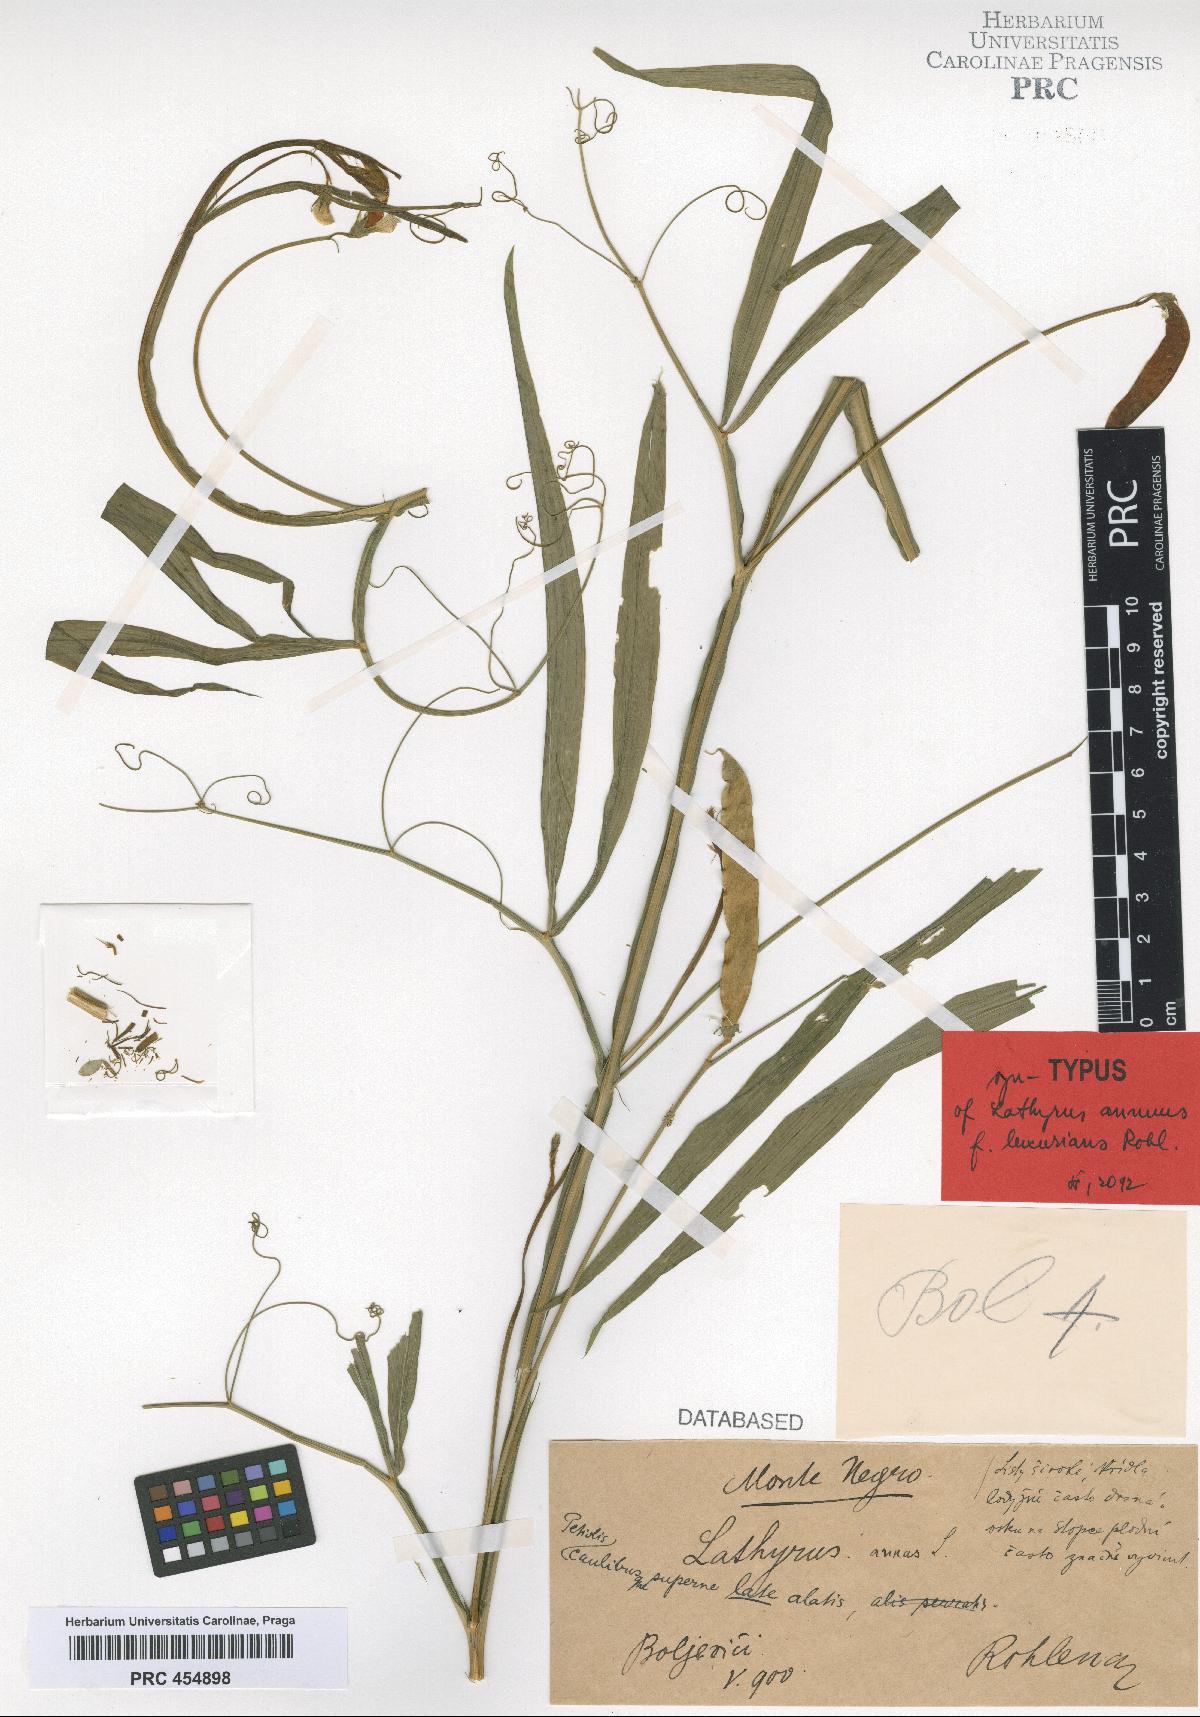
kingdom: Plantae
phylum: Tracheophyta
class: Magnoliopsida
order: Fabales
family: Fabaceae
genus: Lathyrus
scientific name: Lathyrus annuus
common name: Fodder pea
